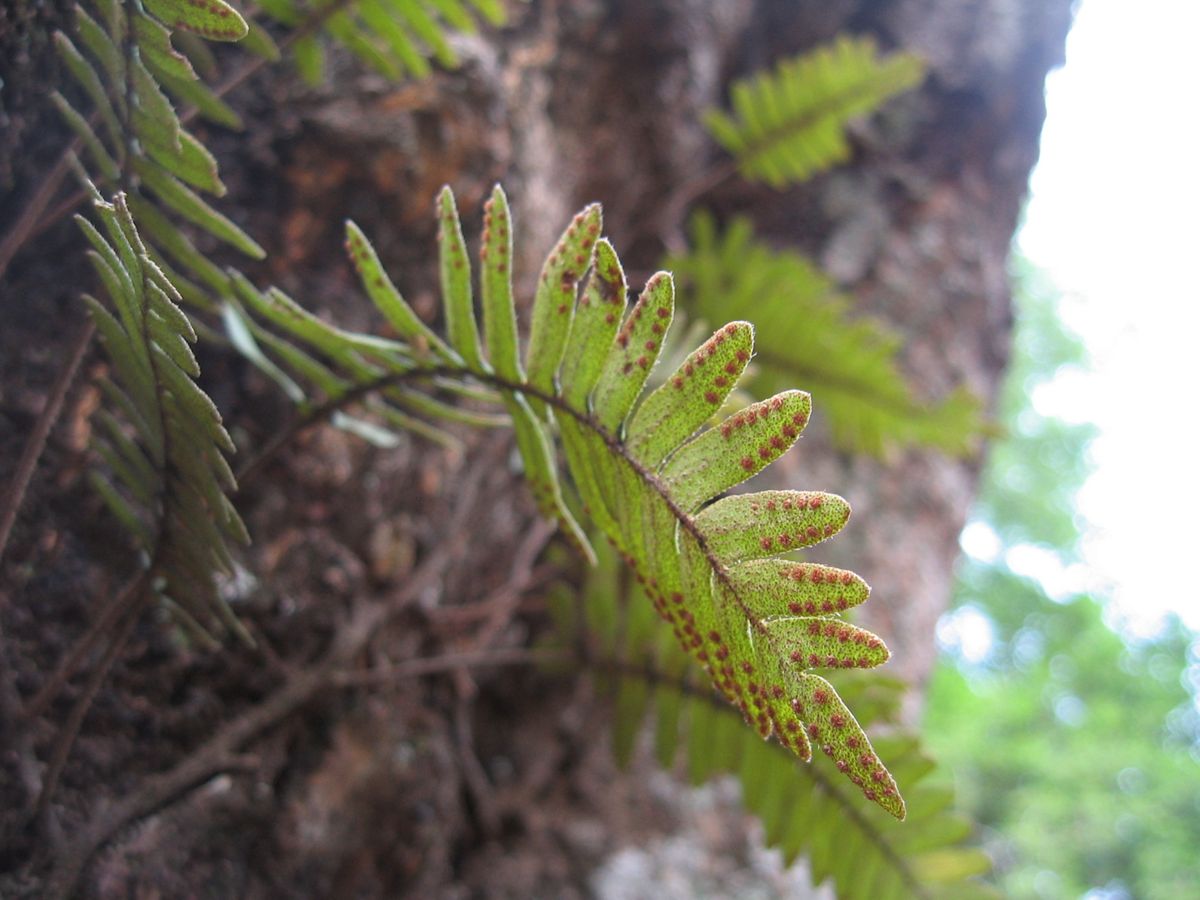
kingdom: Plantae
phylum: Tracheophyta
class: Polypodiopsida
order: Polypodiales
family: Polypodiaceae
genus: Pleopeltis
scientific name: Pleopeltis furfuracea
